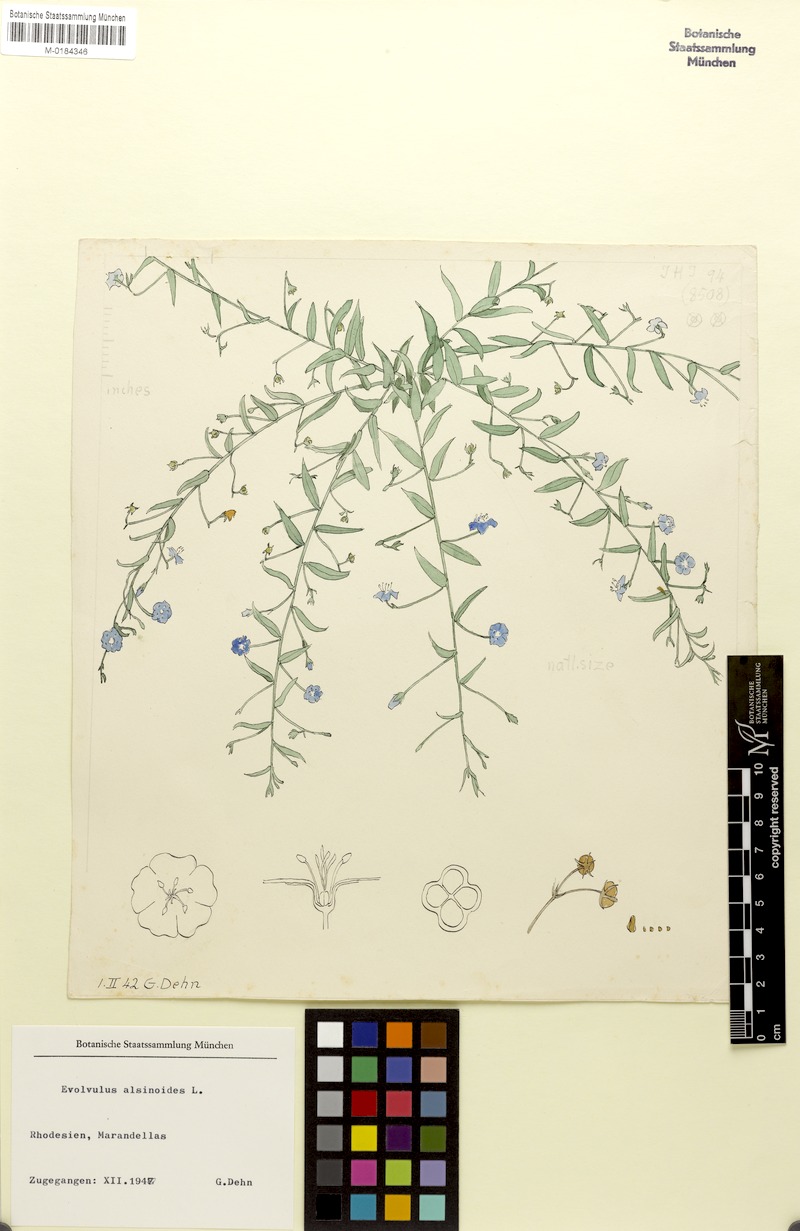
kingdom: Plantae
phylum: Tracheophyta
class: Magnoliopsida
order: Solanales
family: Convolvulaceae
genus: Evolvulus
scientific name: Evolvulus alsinoides
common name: Slender dwarf morning-glory
